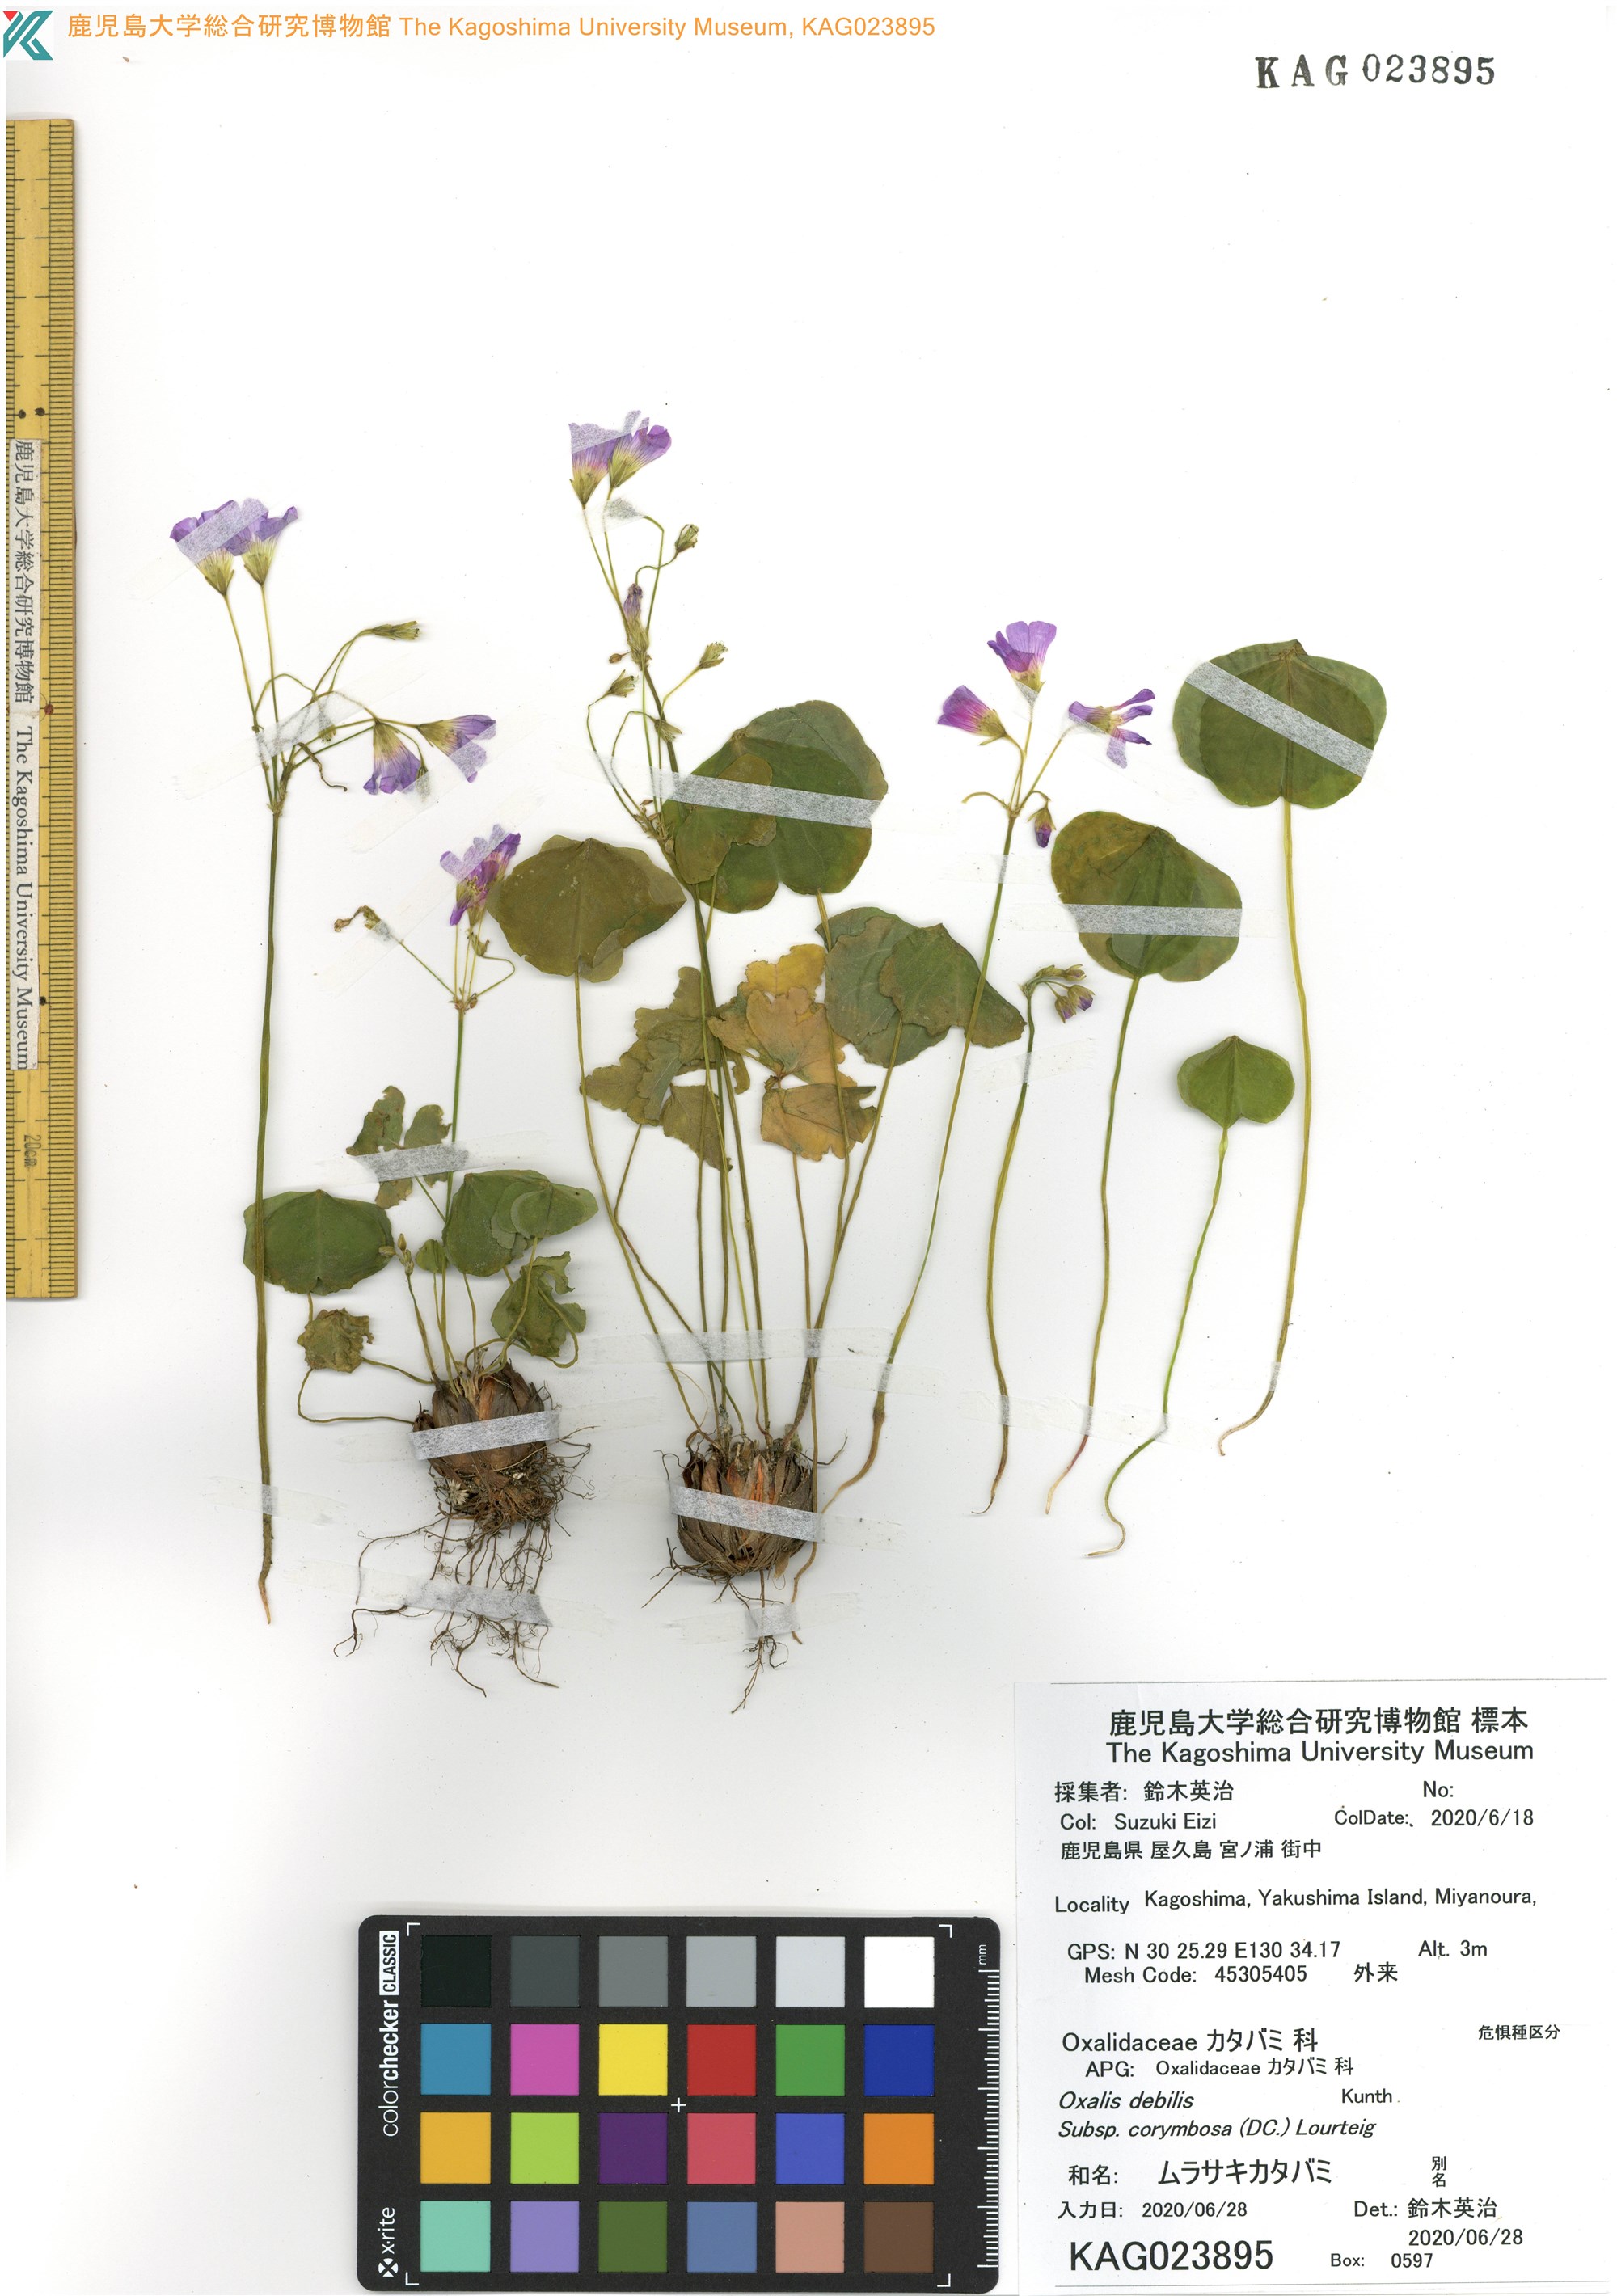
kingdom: Plantae
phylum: Tracheophyta
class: Magnoliopsida
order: Oxalidales
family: Oxalidaceae
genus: Oxalis
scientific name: Oxalis debilis
